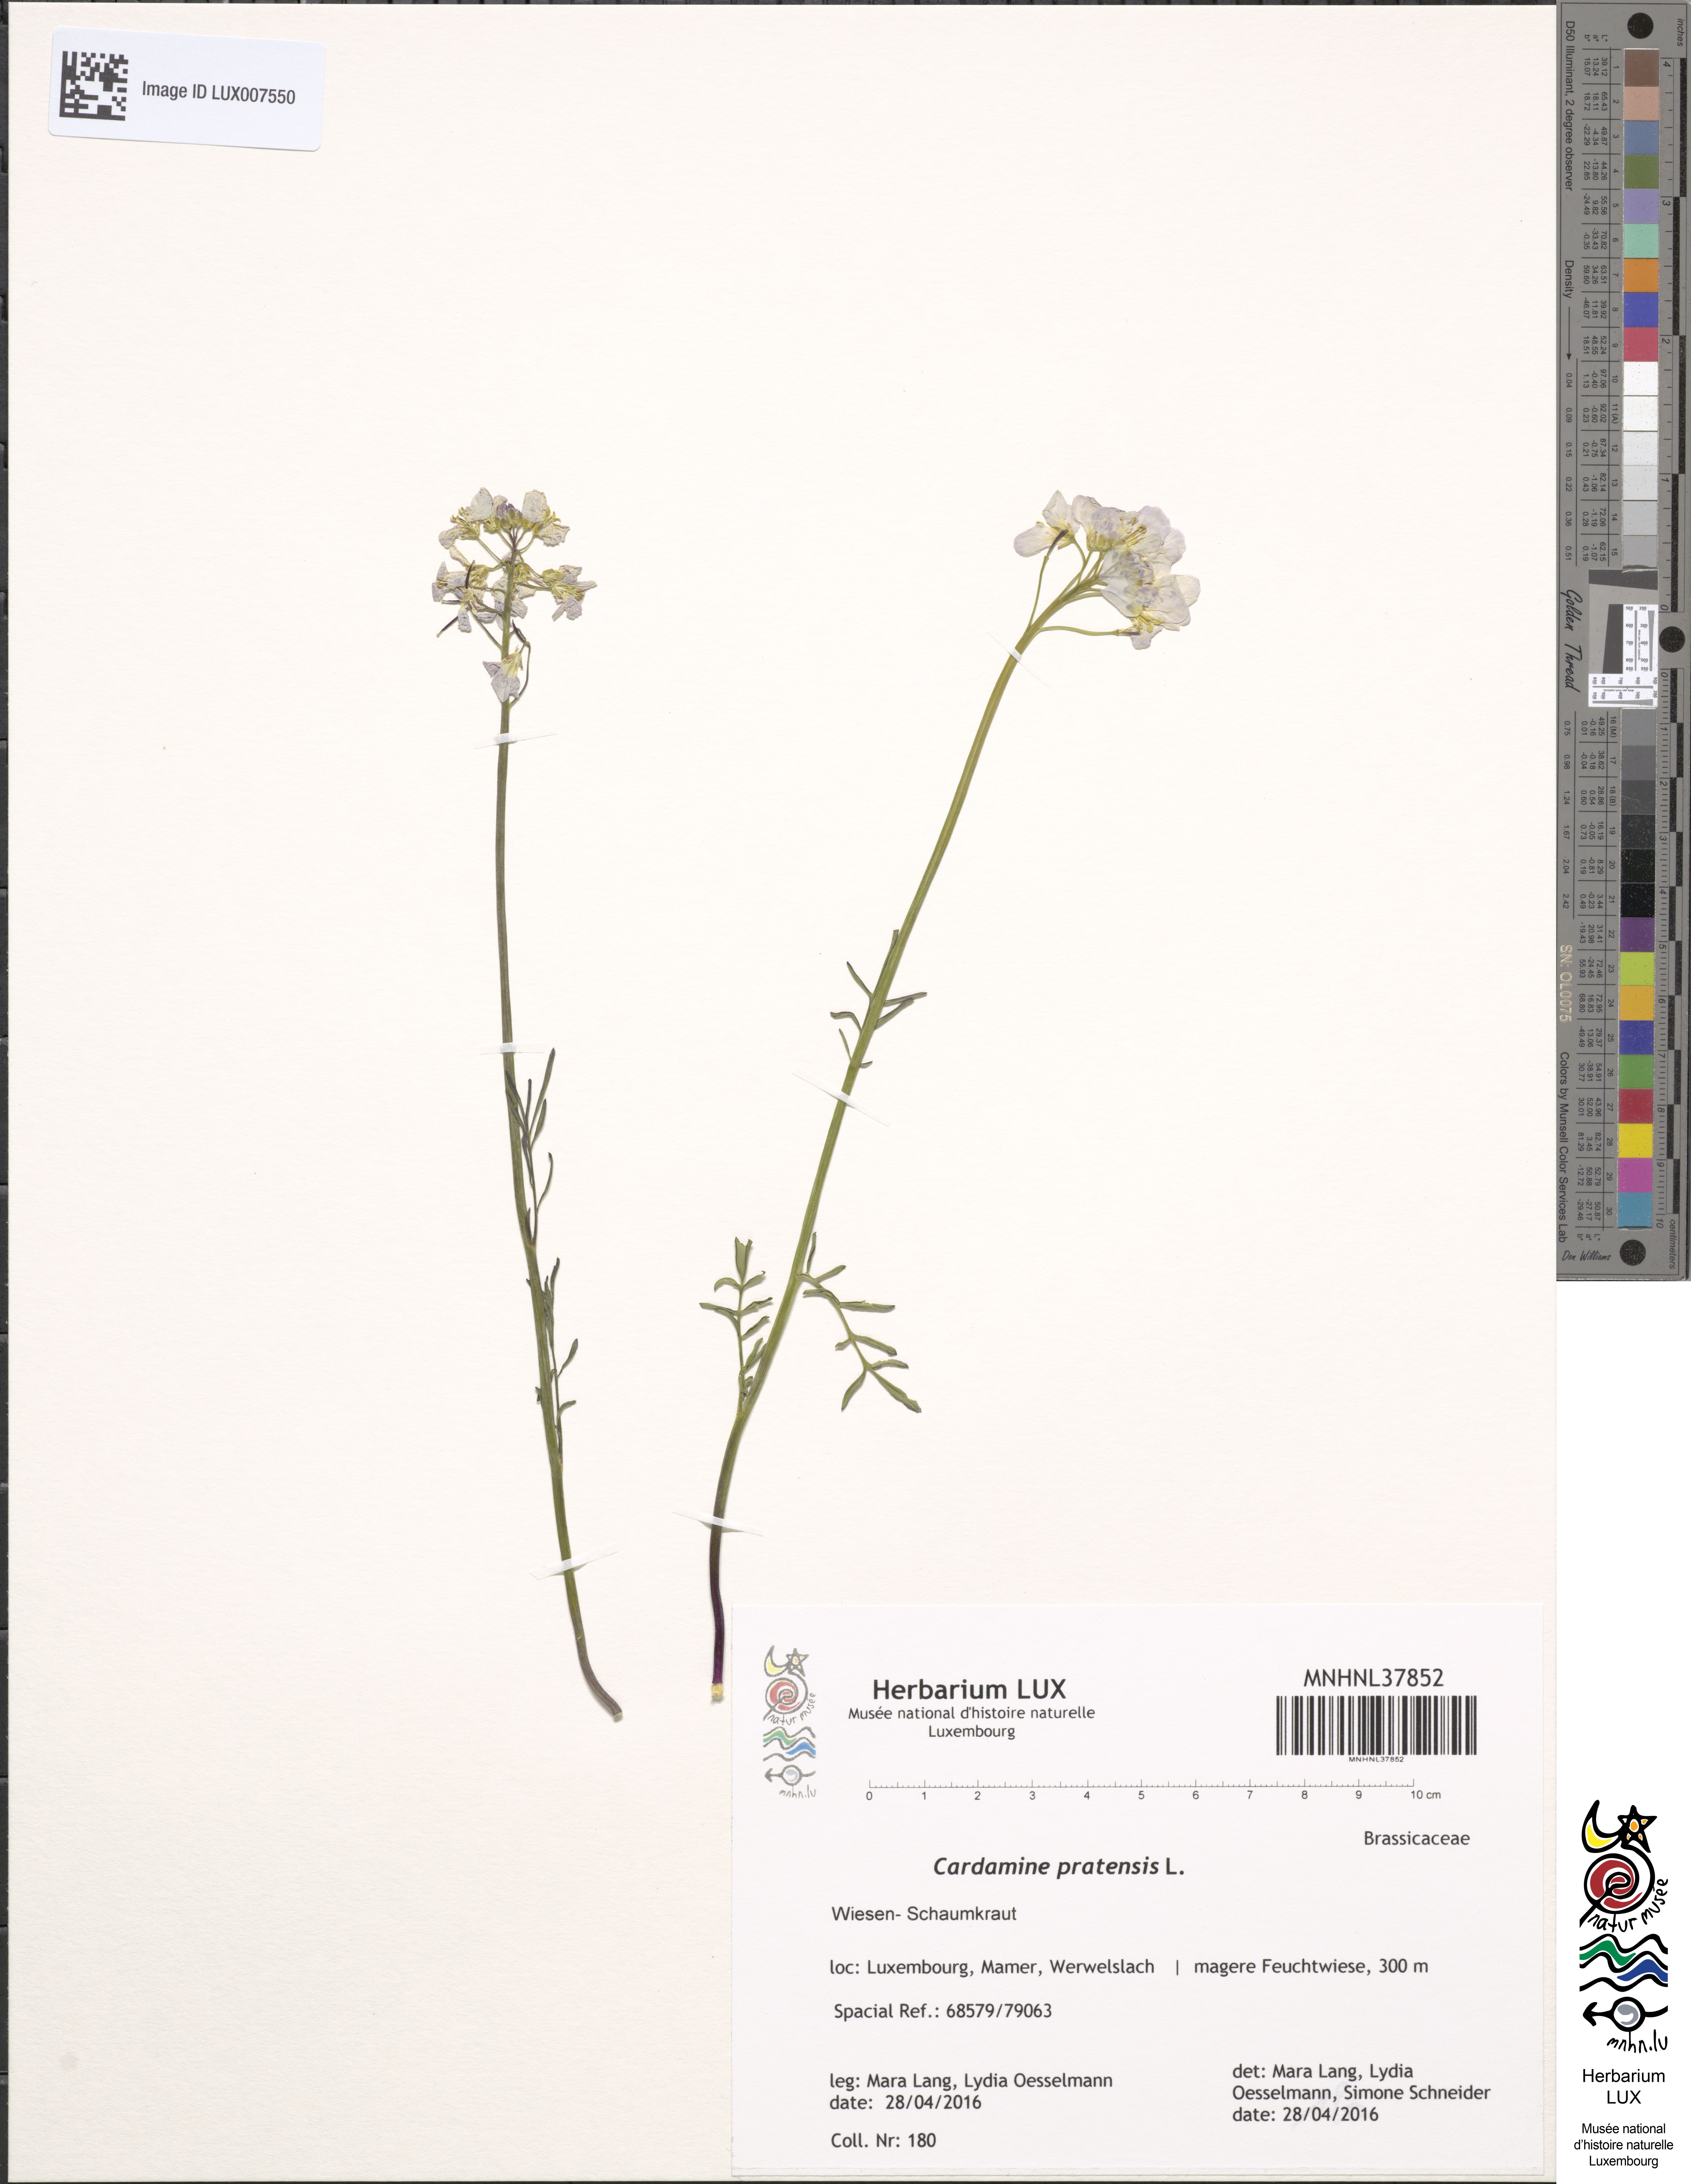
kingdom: Plantae
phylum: Tracheophyta
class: Magnoliopsida
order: Brassicales
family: Brassicaceae
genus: Cardamine
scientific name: Cardamine pratensis
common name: Cuckoo flower
